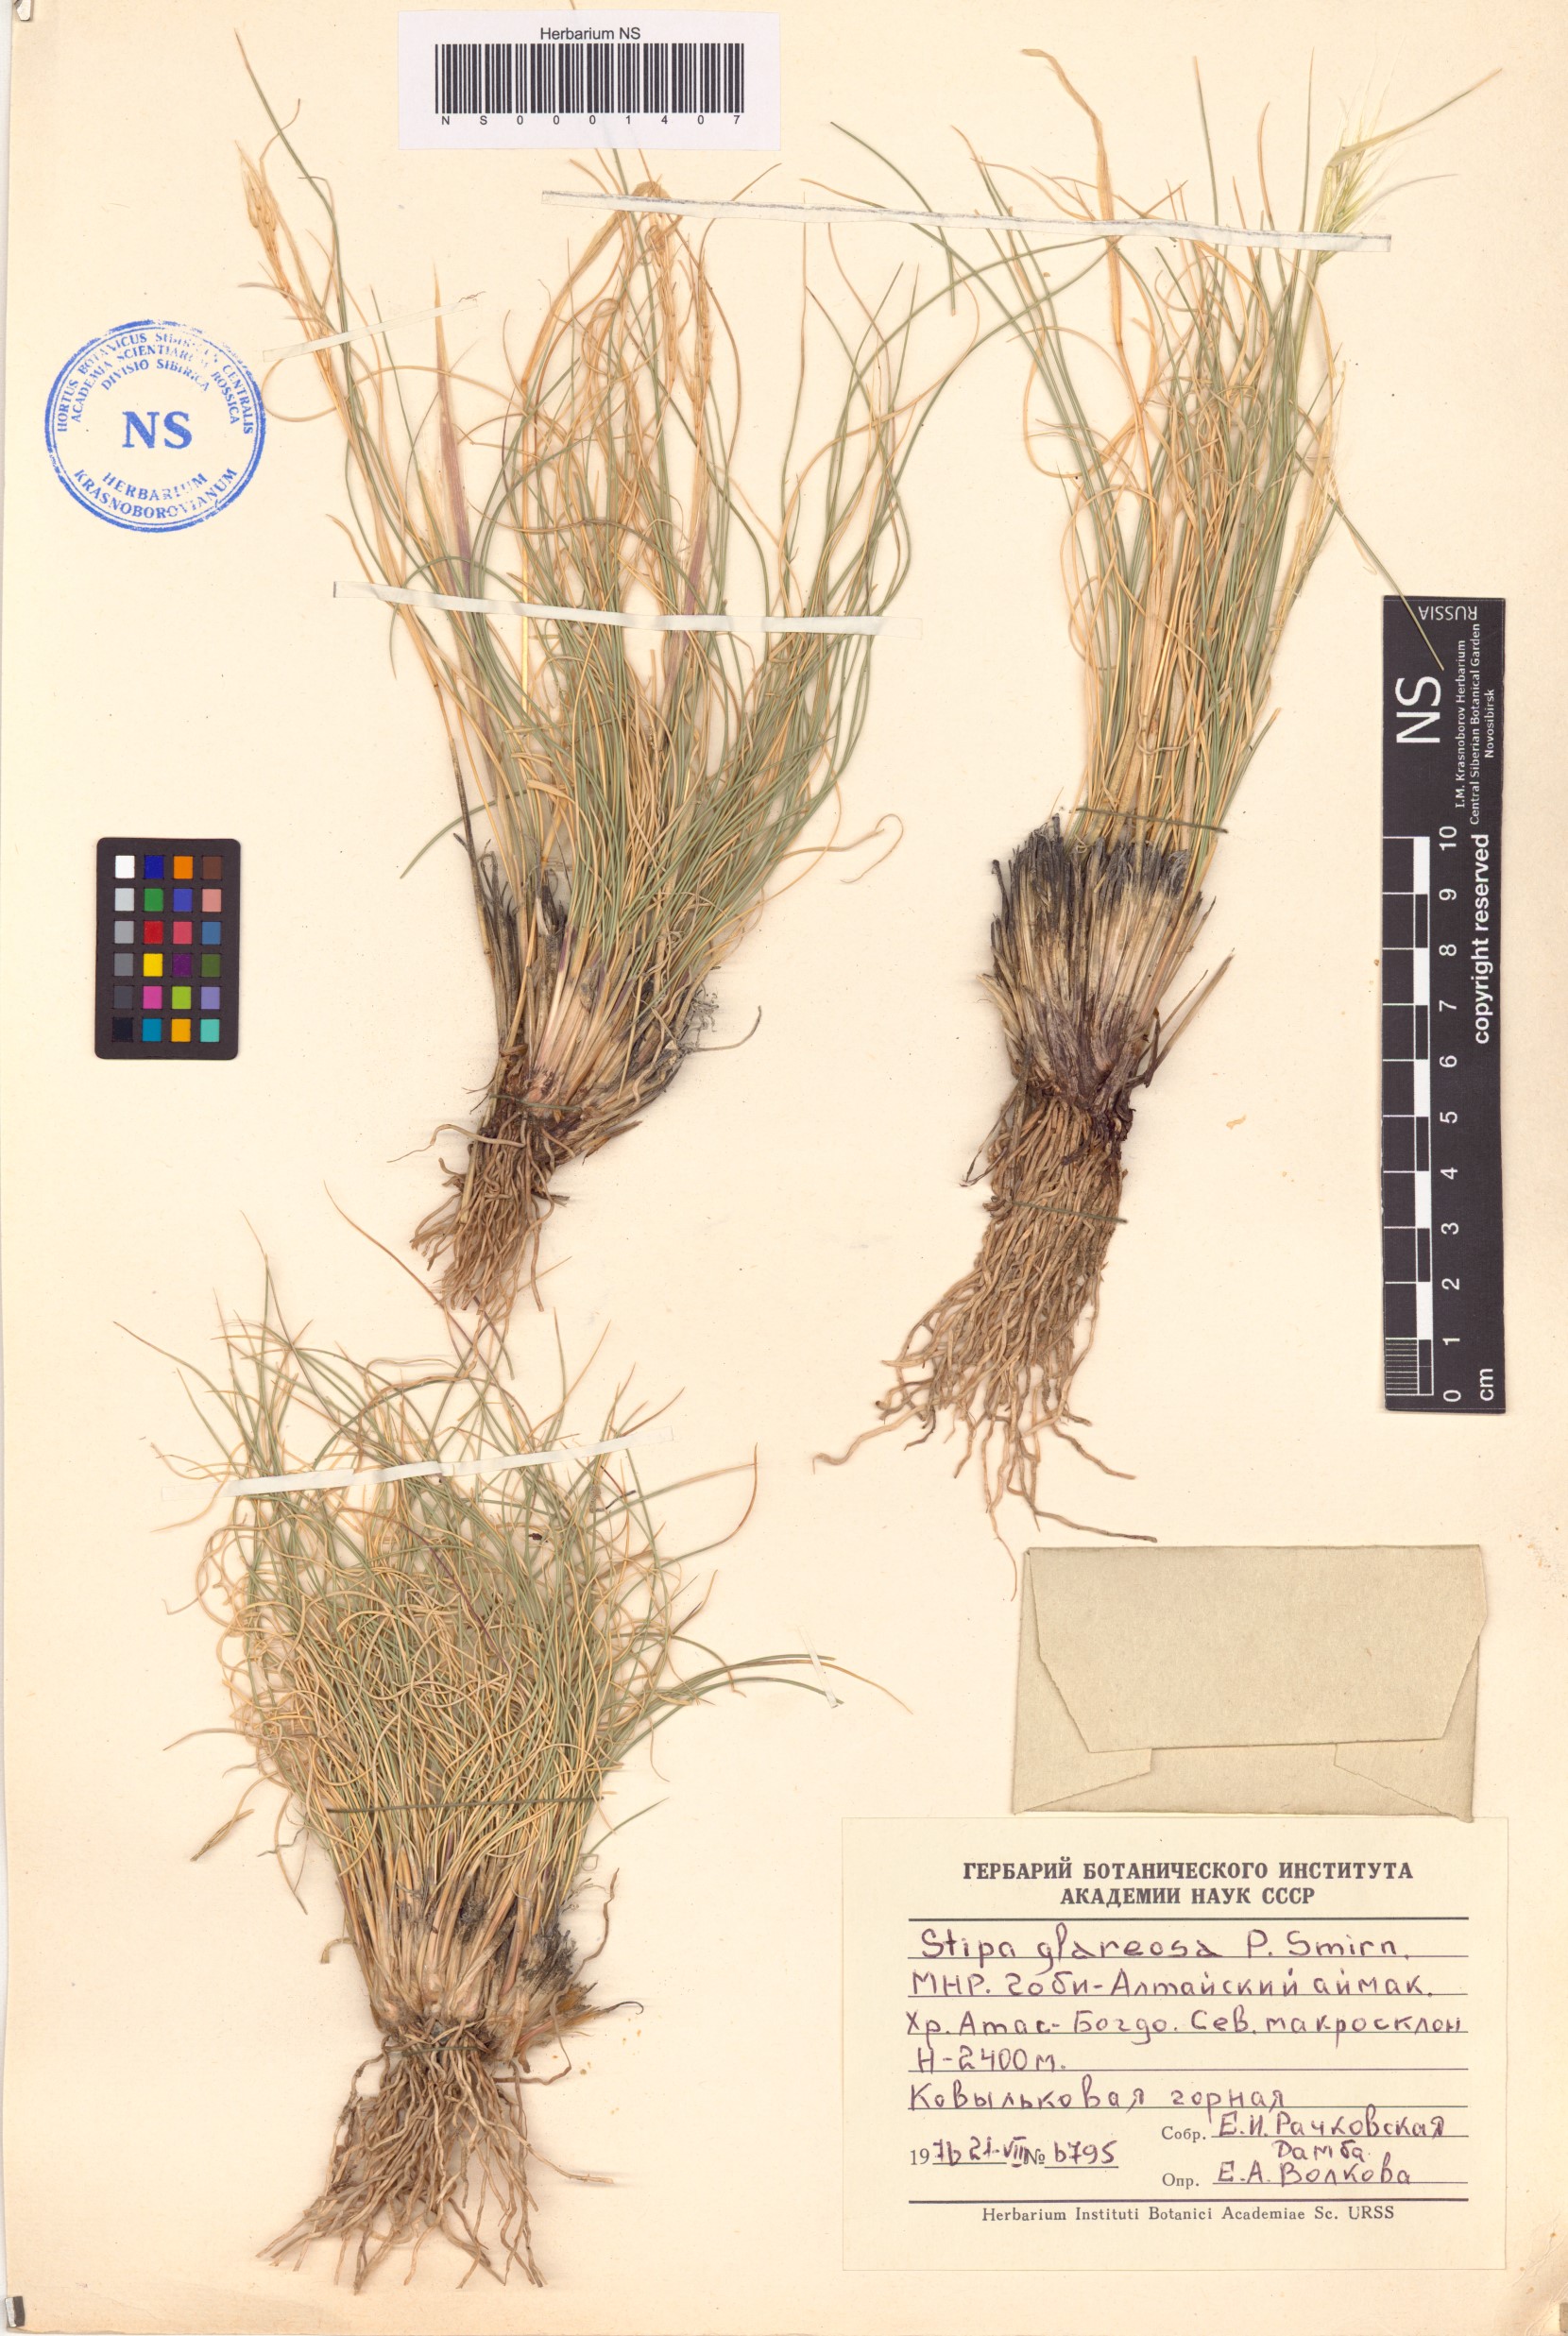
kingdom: Plantae
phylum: Tracheophyta
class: Liliopsida
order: Poales
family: Poaceae
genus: Stipa
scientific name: Stipa glareosa
